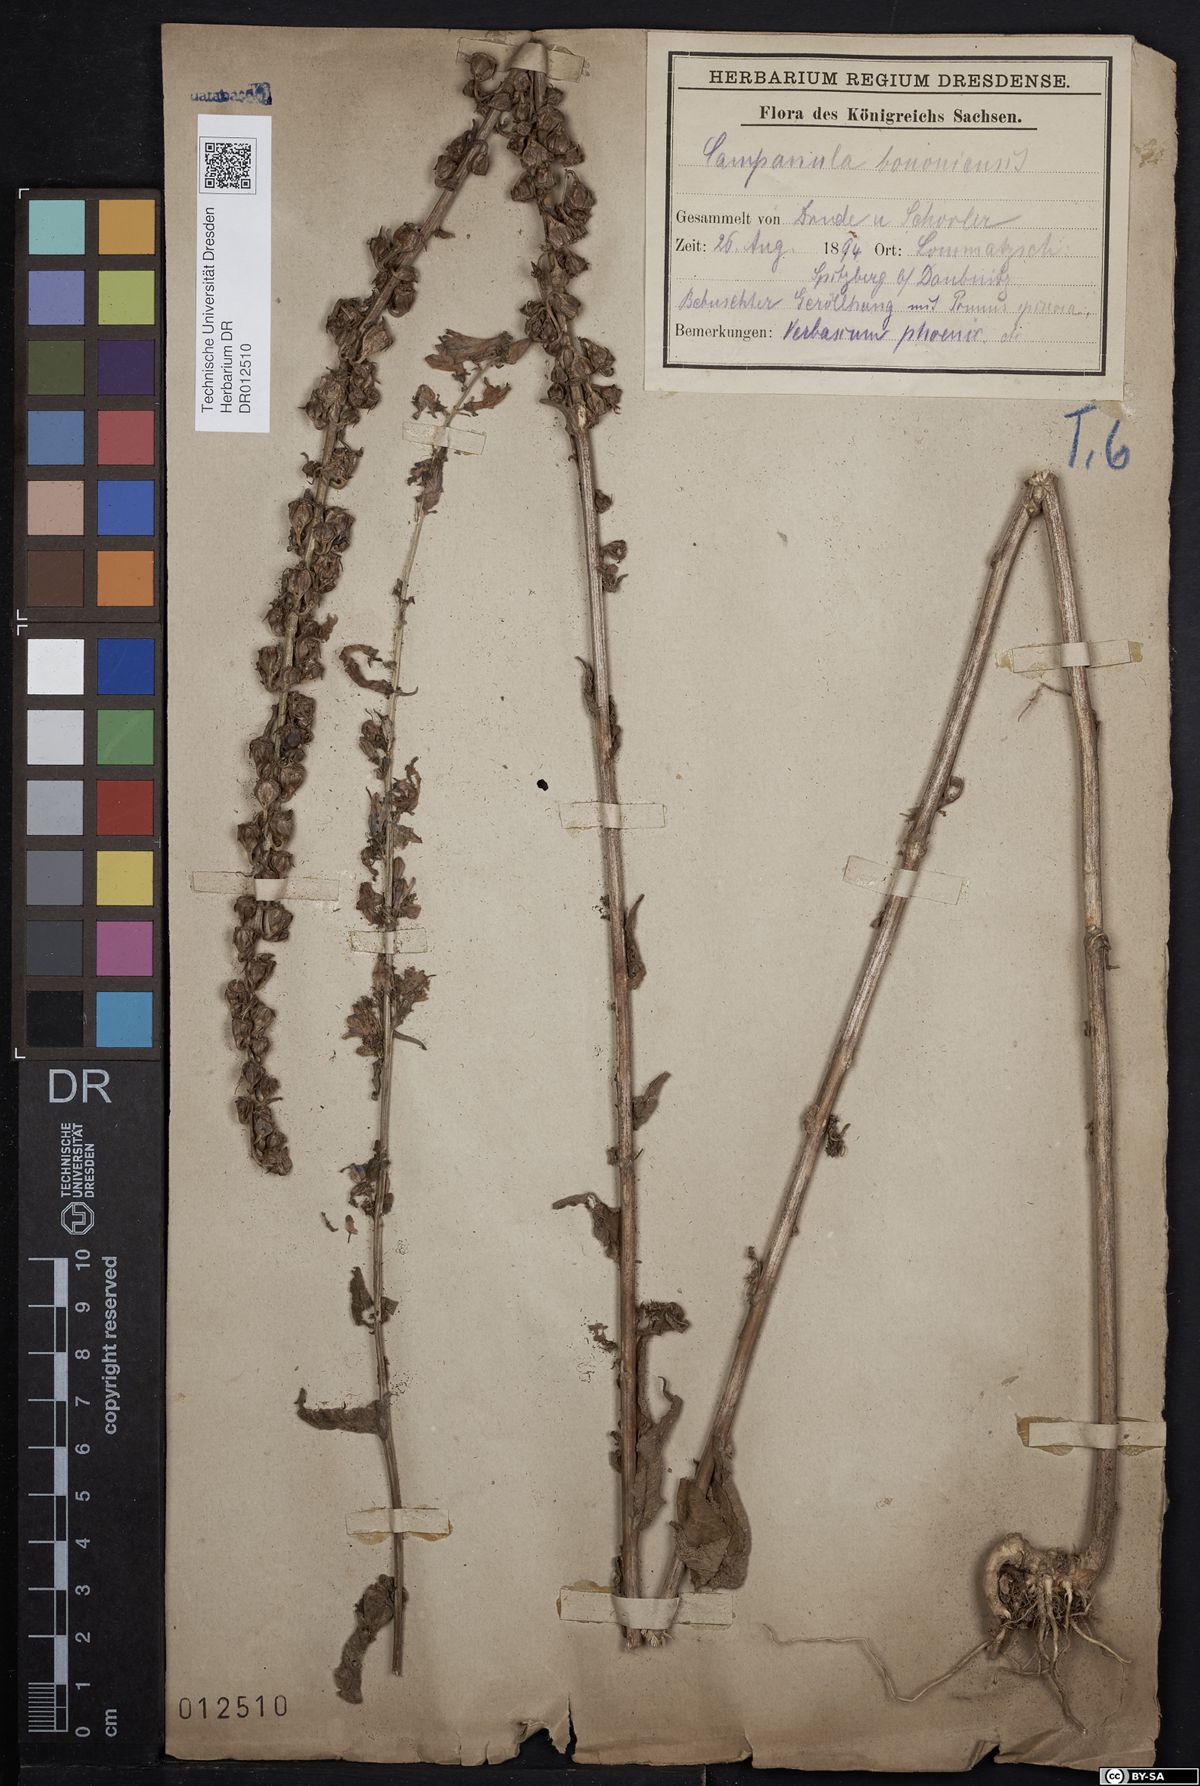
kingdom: Plantae
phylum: Tracheophyta
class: Magnoliopsida
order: Asterales
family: Campanulaceae
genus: Campanula
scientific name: Campanula bononiensis
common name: Pale bellflower
